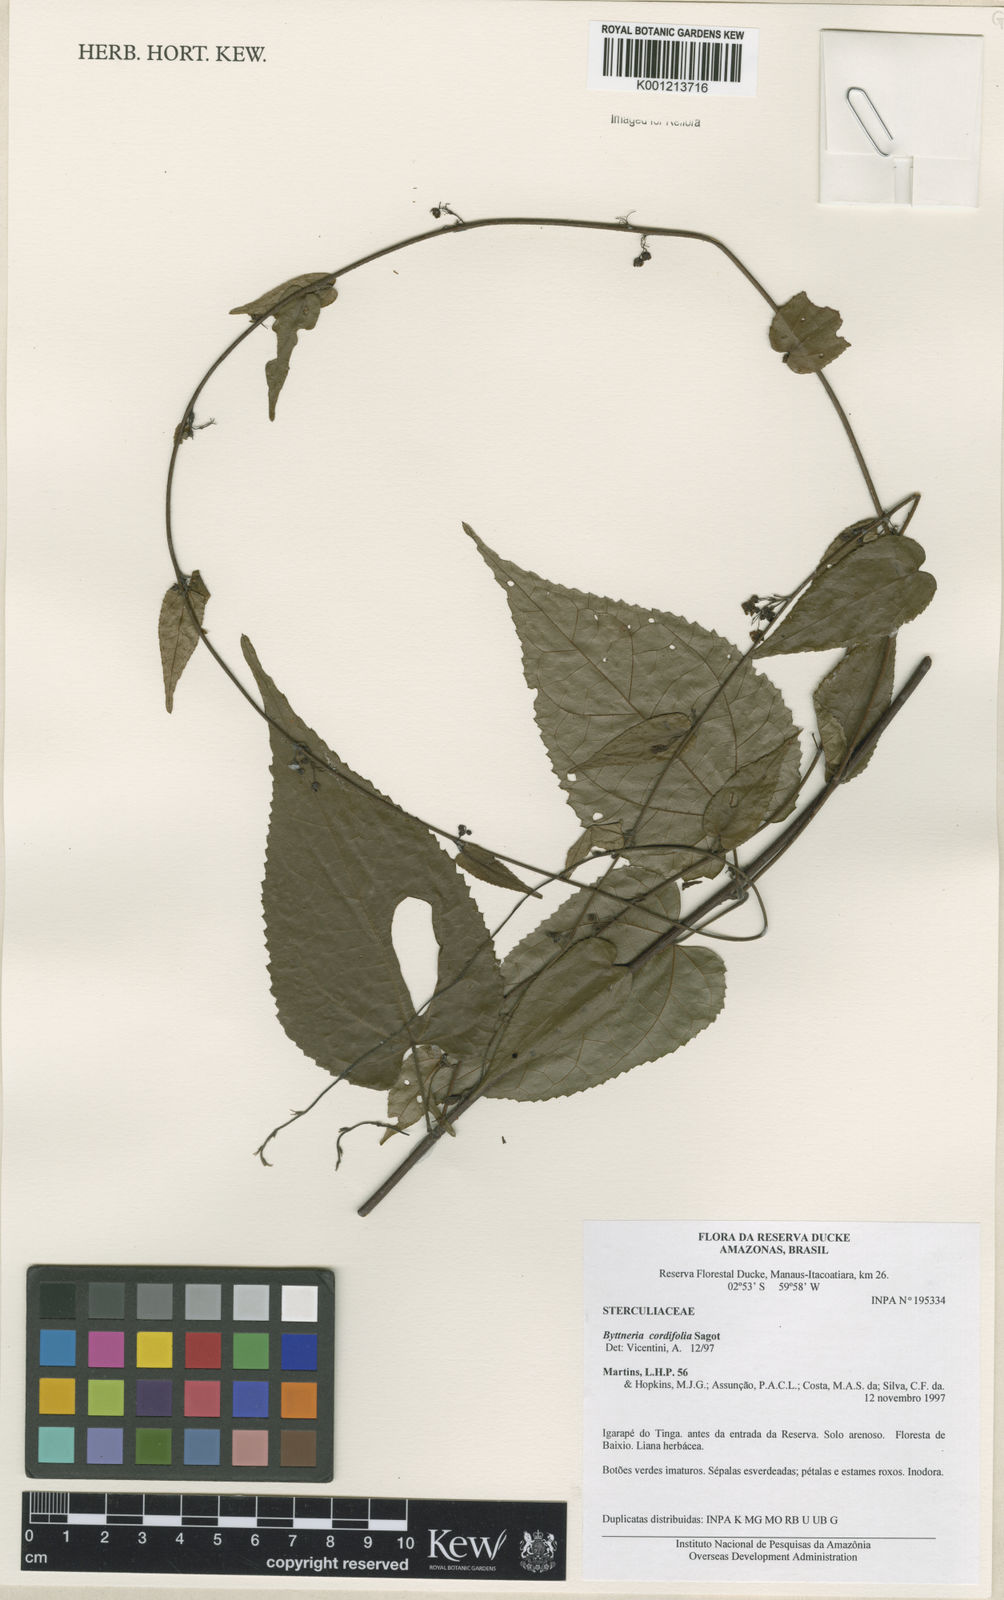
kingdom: Plantae
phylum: Tracheophyta
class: Magnoliopsida
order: Malvales
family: Malvaceae
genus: Byttneria
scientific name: Byttneria cordifolia
